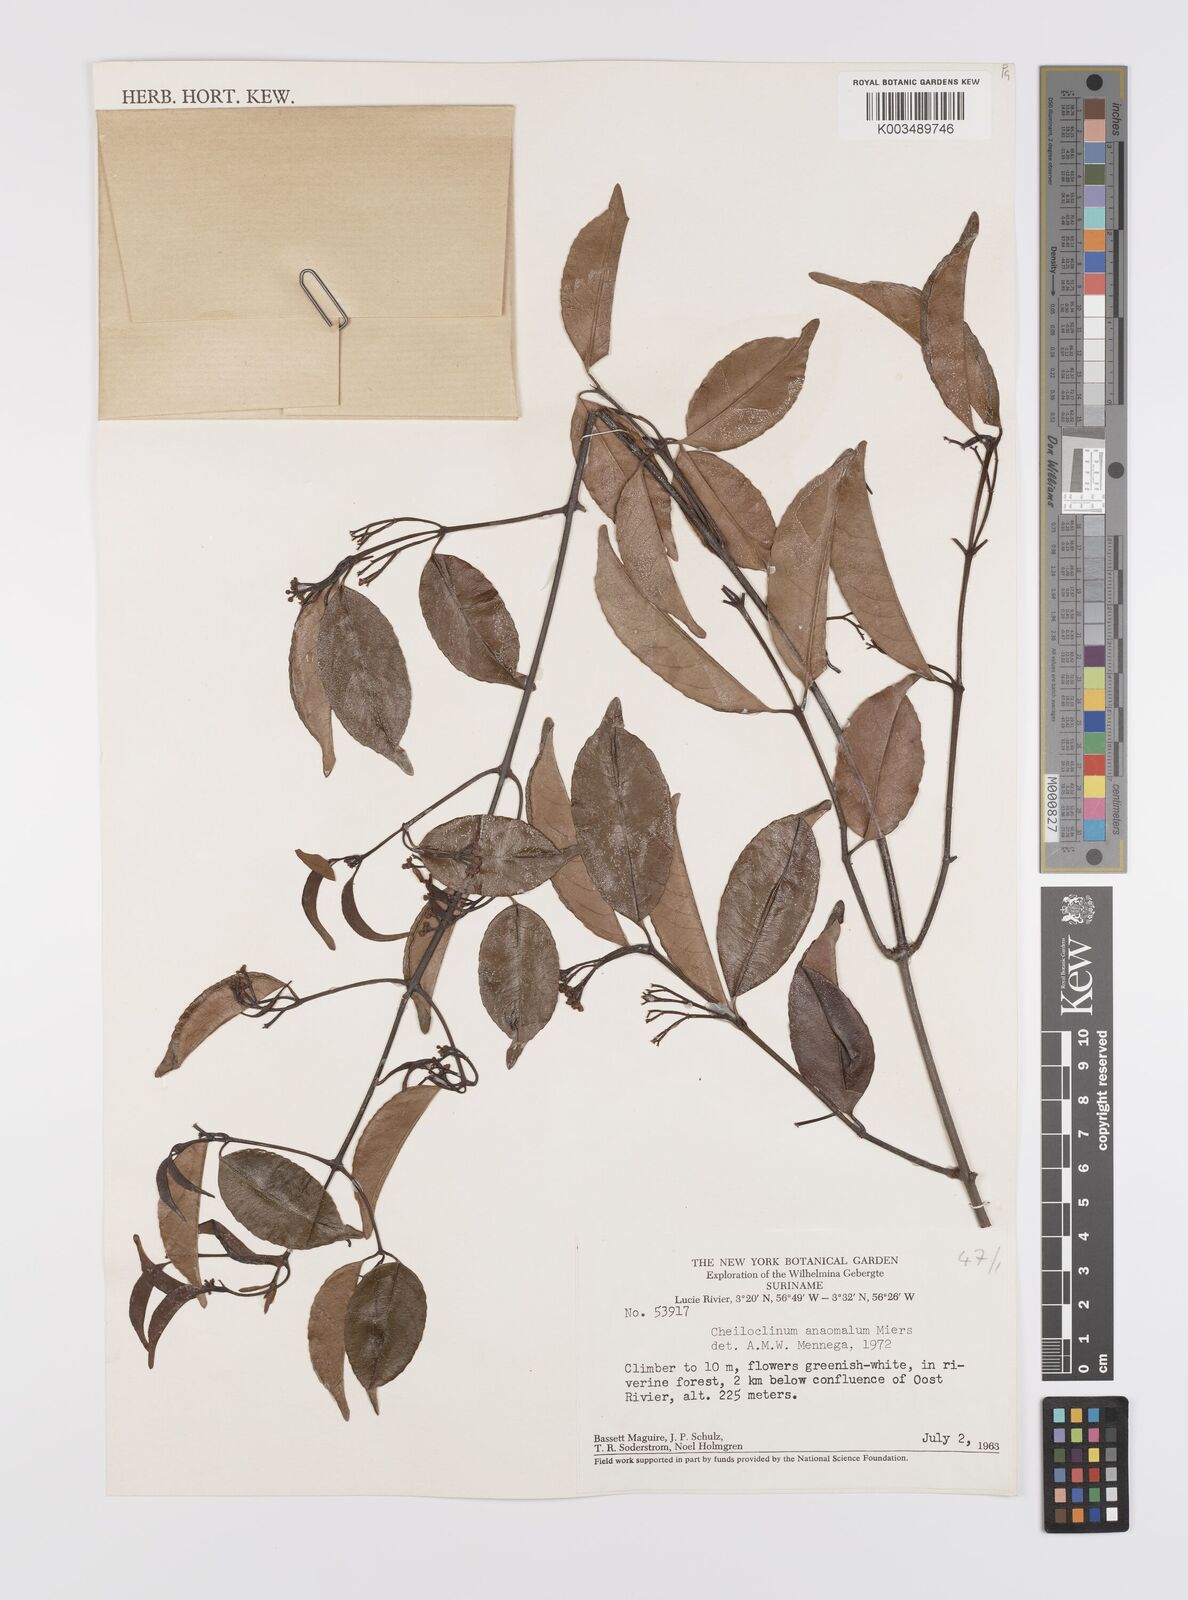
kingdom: Plantae
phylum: Tracheophyta
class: Magnoliopsida
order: Celastrales
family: Celastraceae
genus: Cheiloclinium
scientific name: Cheiloclinium anomalum
